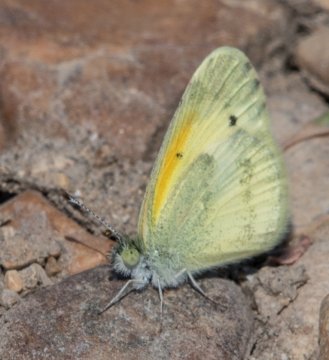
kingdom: Animalia
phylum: Arthropoda
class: Insecta
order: Lepidoptera
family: Pieridae
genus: Nathalis
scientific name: Nathalis iole
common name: Dainty Sulphur
